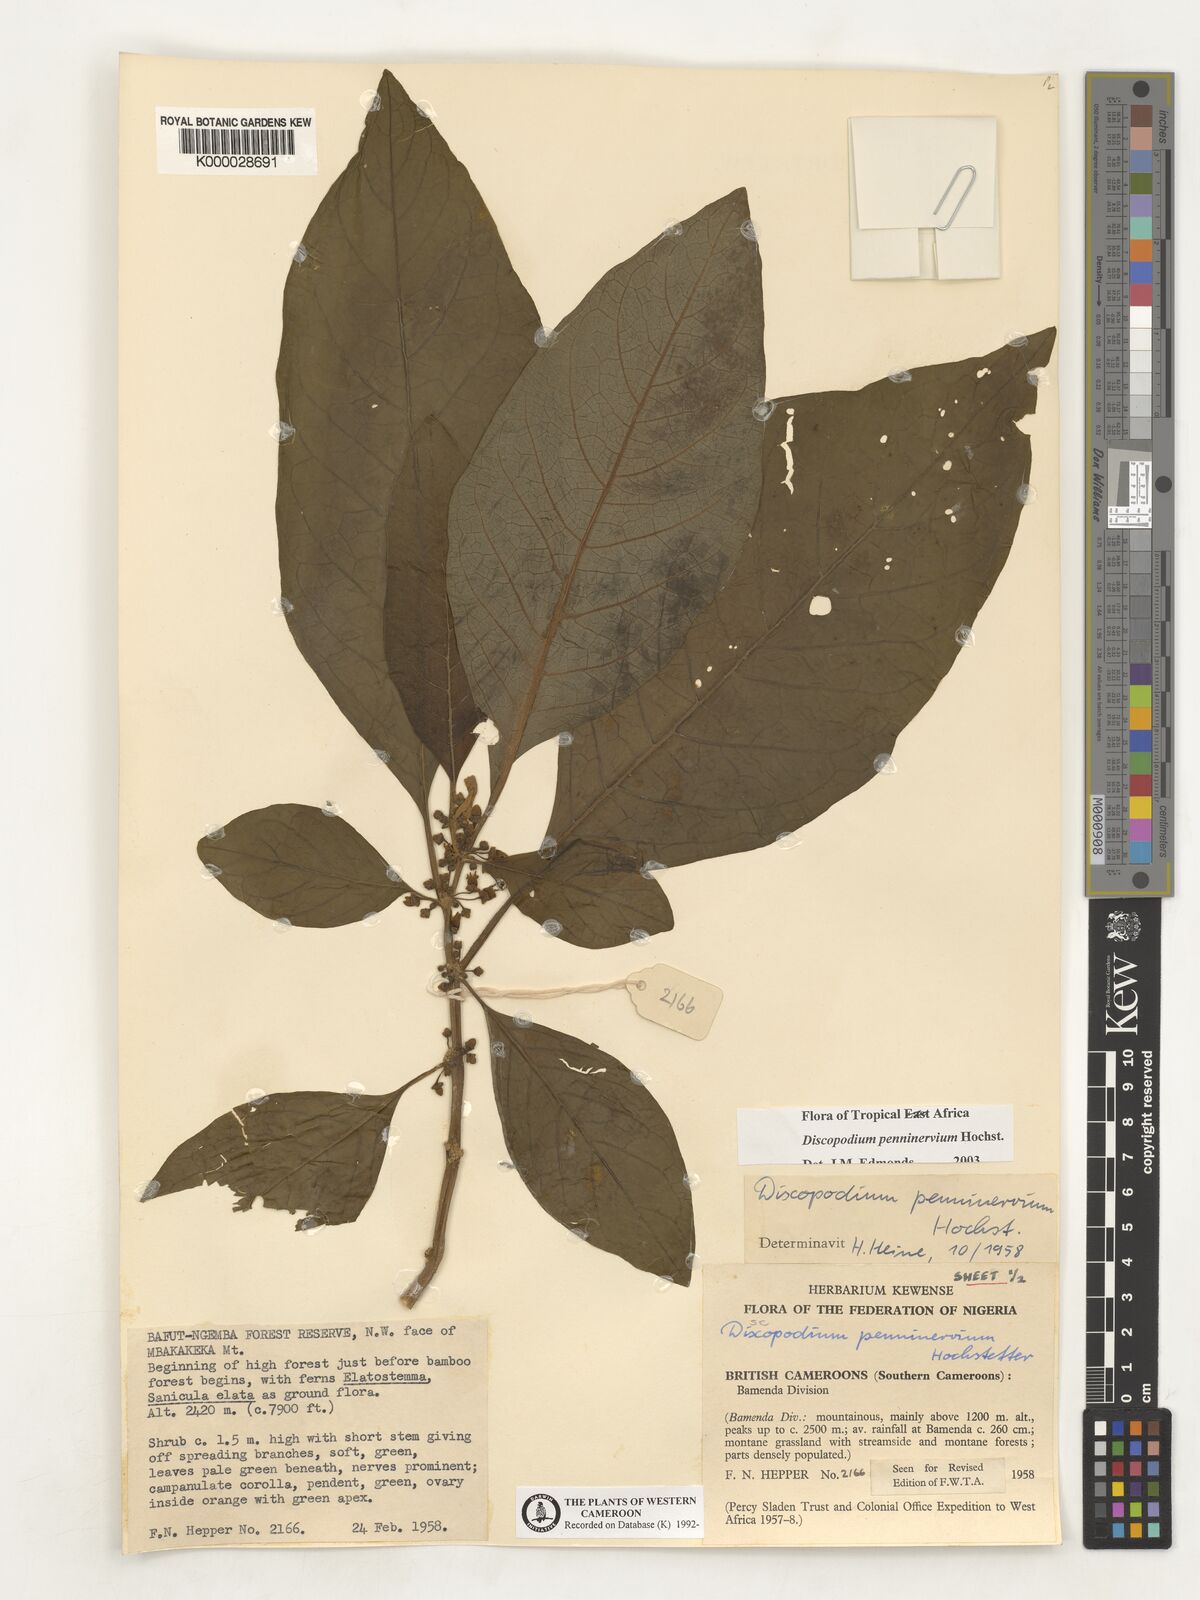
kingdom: Plantae
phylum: Tracheophyta
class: Magnoliopsida
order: Solanales
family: Solanaceae
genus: Discopodium
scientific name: Discopodium penninervium
